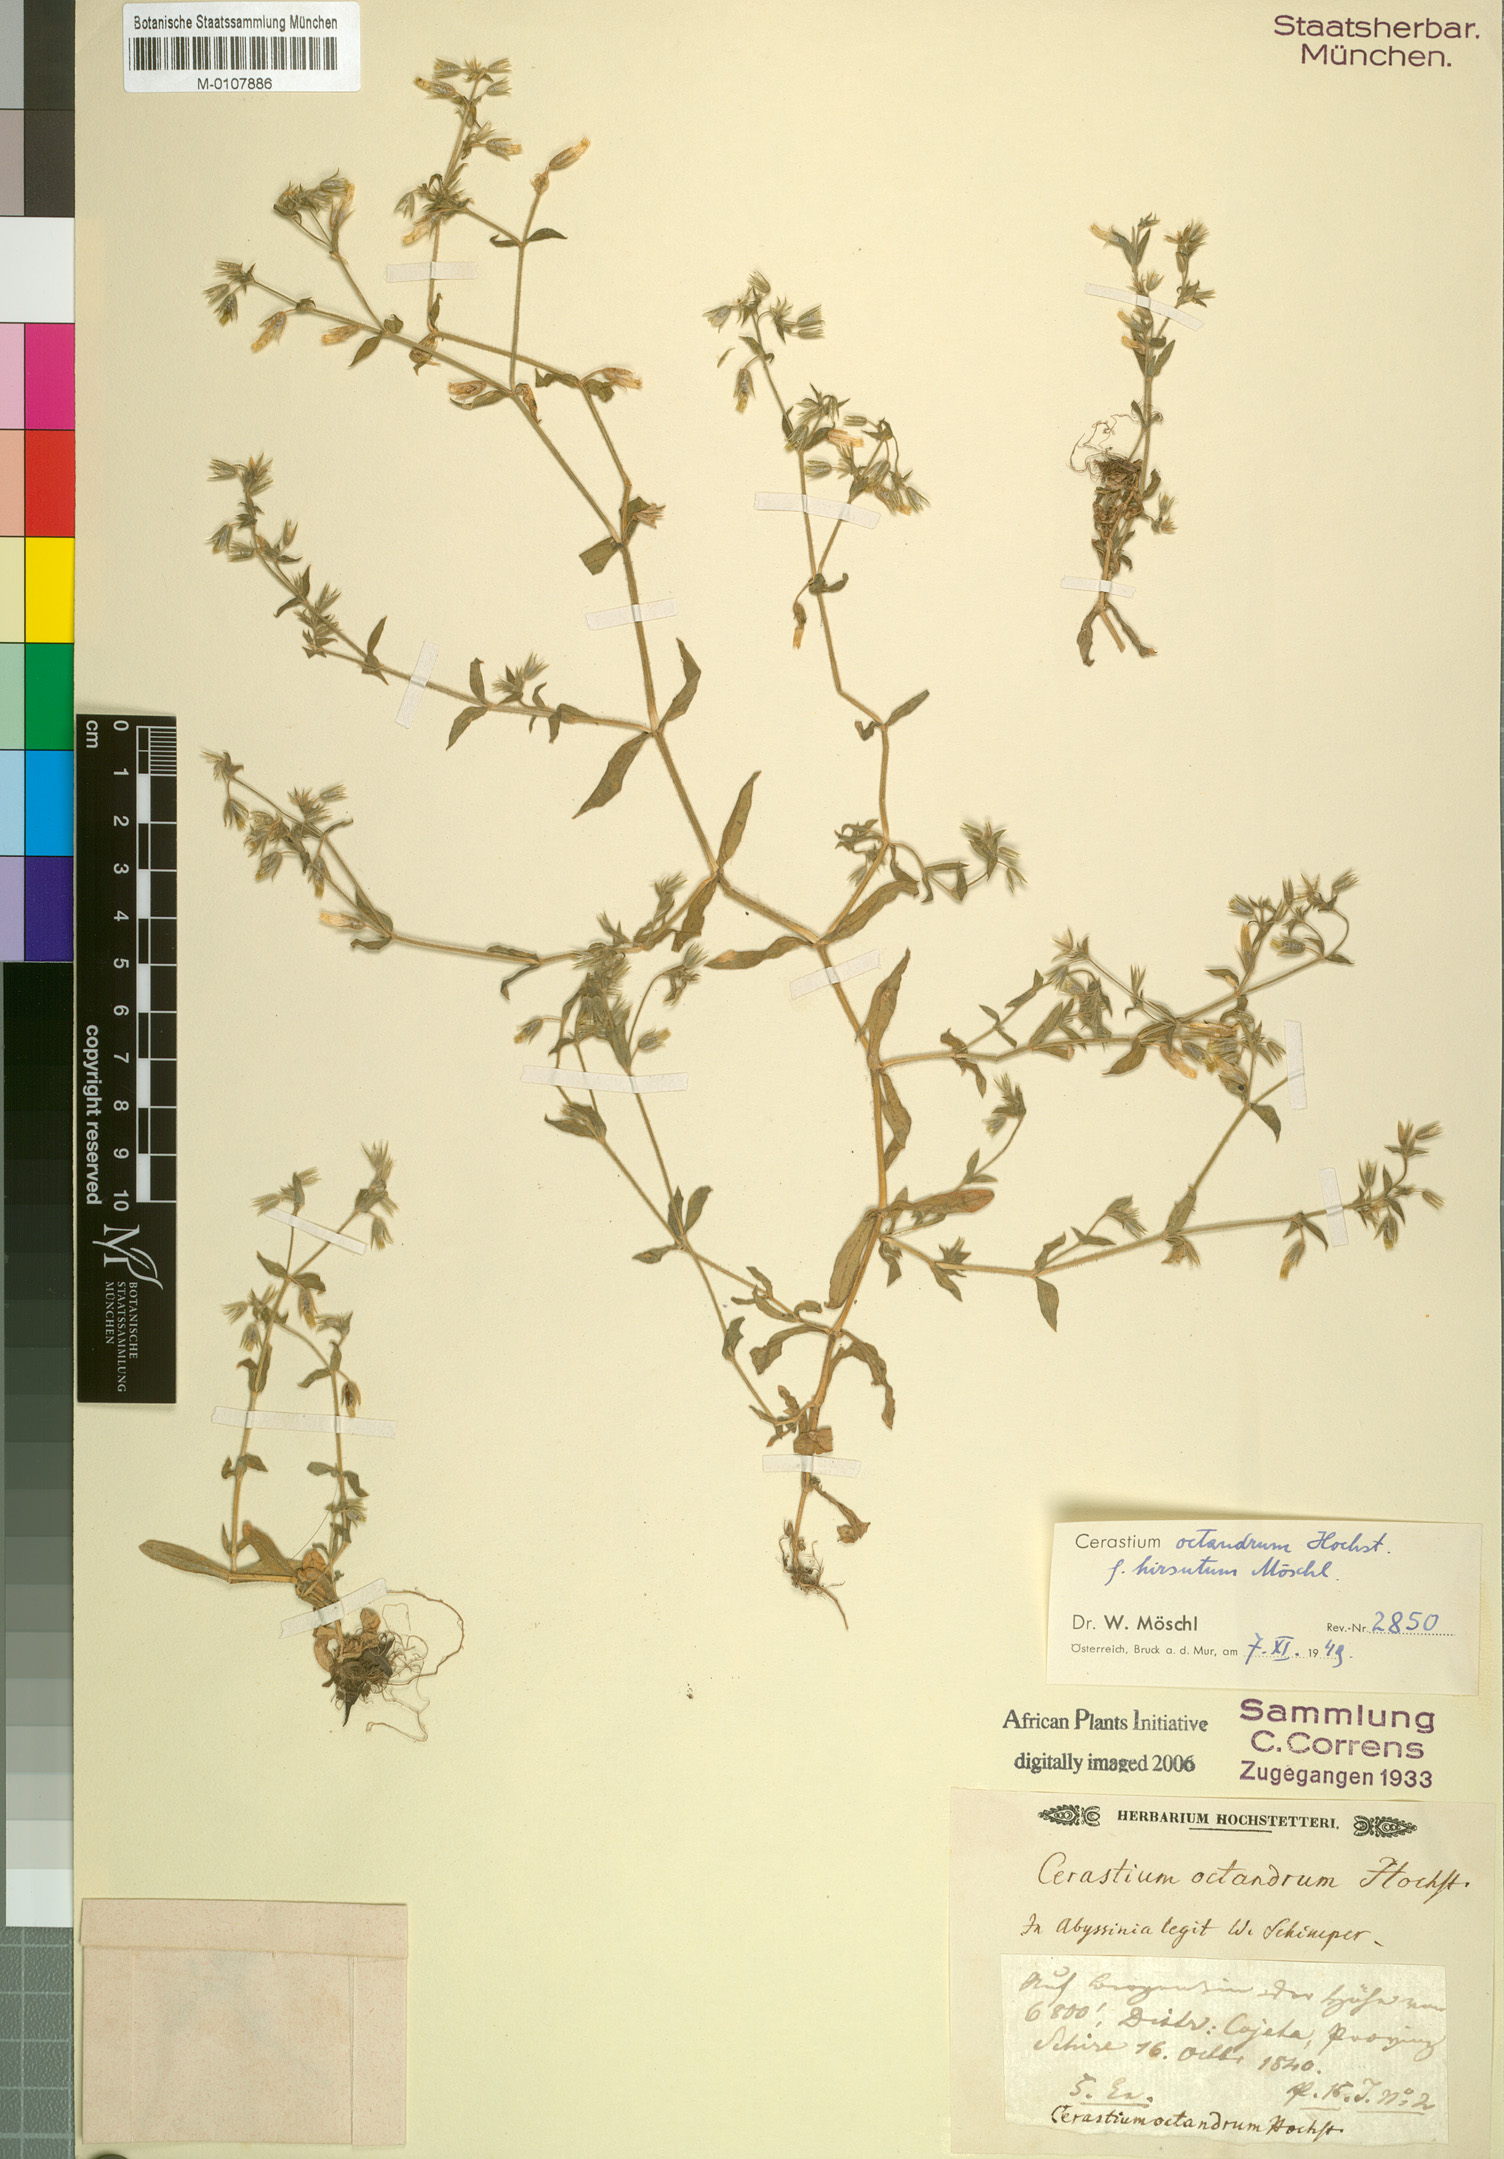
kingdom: Plantae
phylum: Tracheophyta
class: Magnoliopsida
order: Caryophyllales
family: Caryophyllaceae
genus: Cerastium
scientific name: Cerastium octandrum
